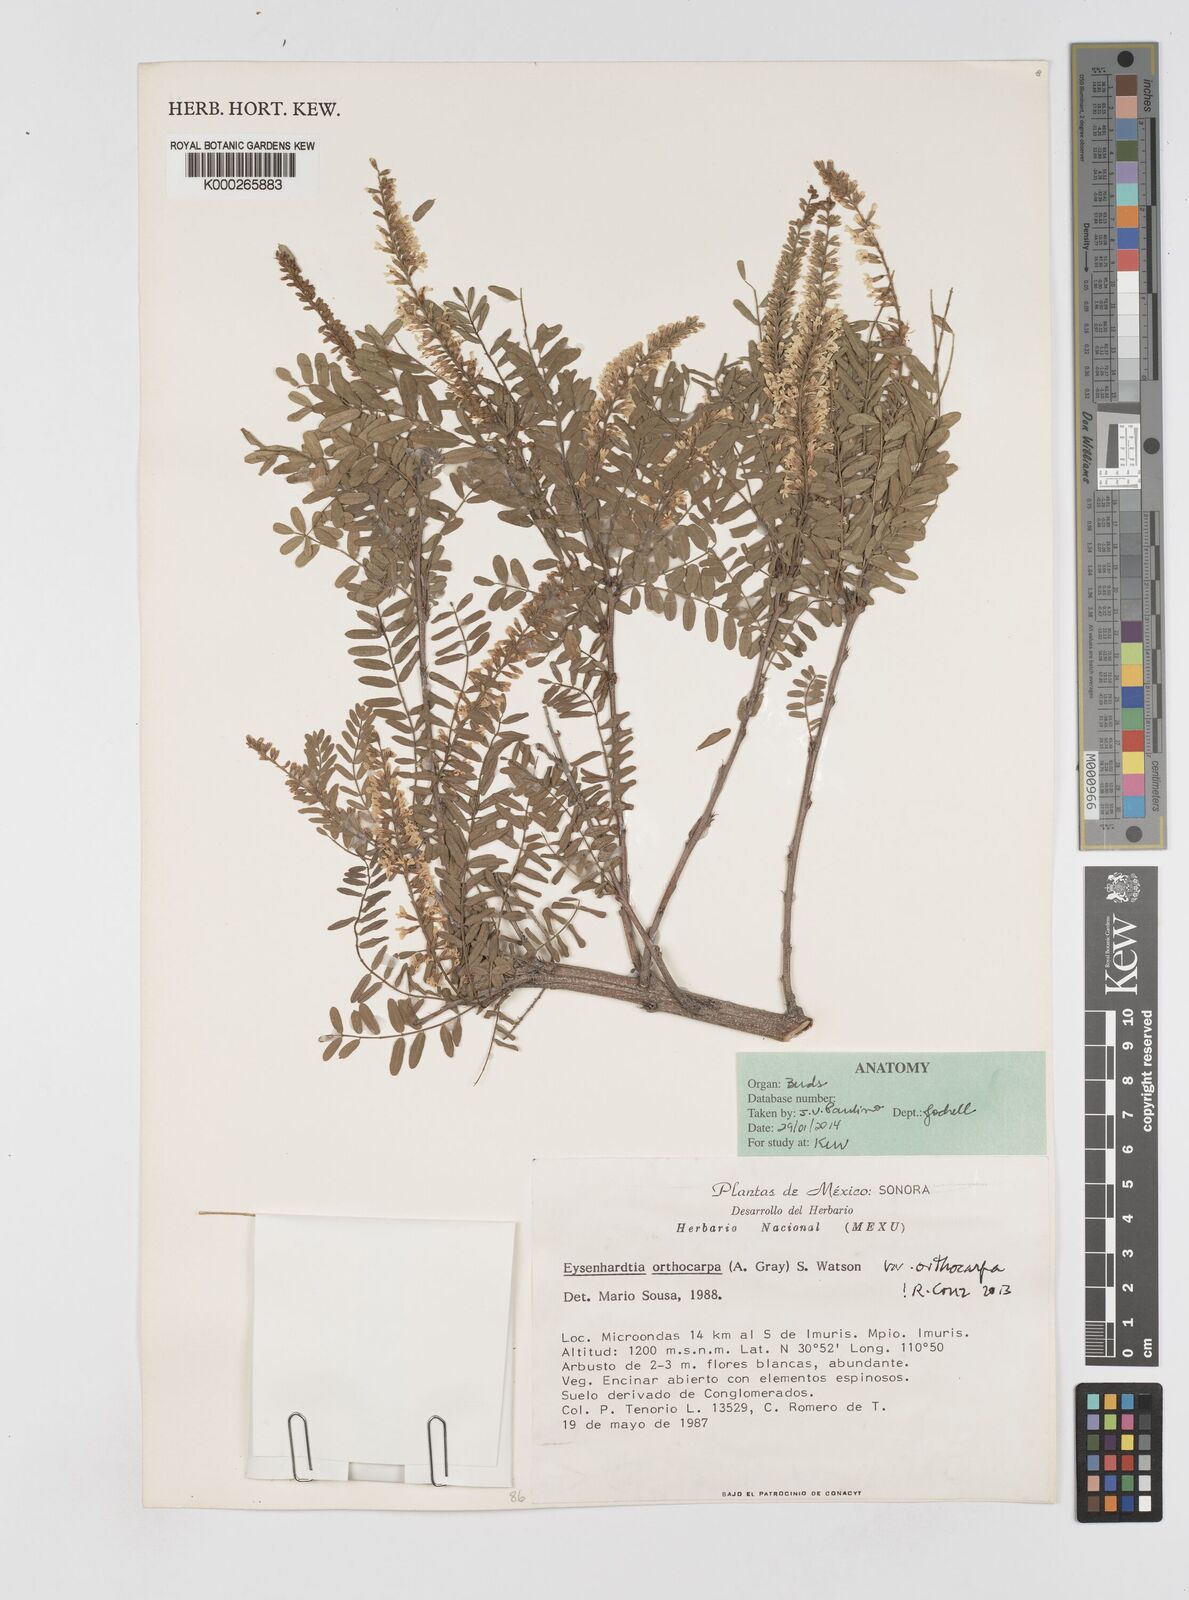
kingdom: Plantae
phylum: Tracheophyta
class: Magnoliopsida
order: Fabales
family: Fabaceae
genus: Eysenhardtia
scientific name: Eysenhardtia orthocarpa
